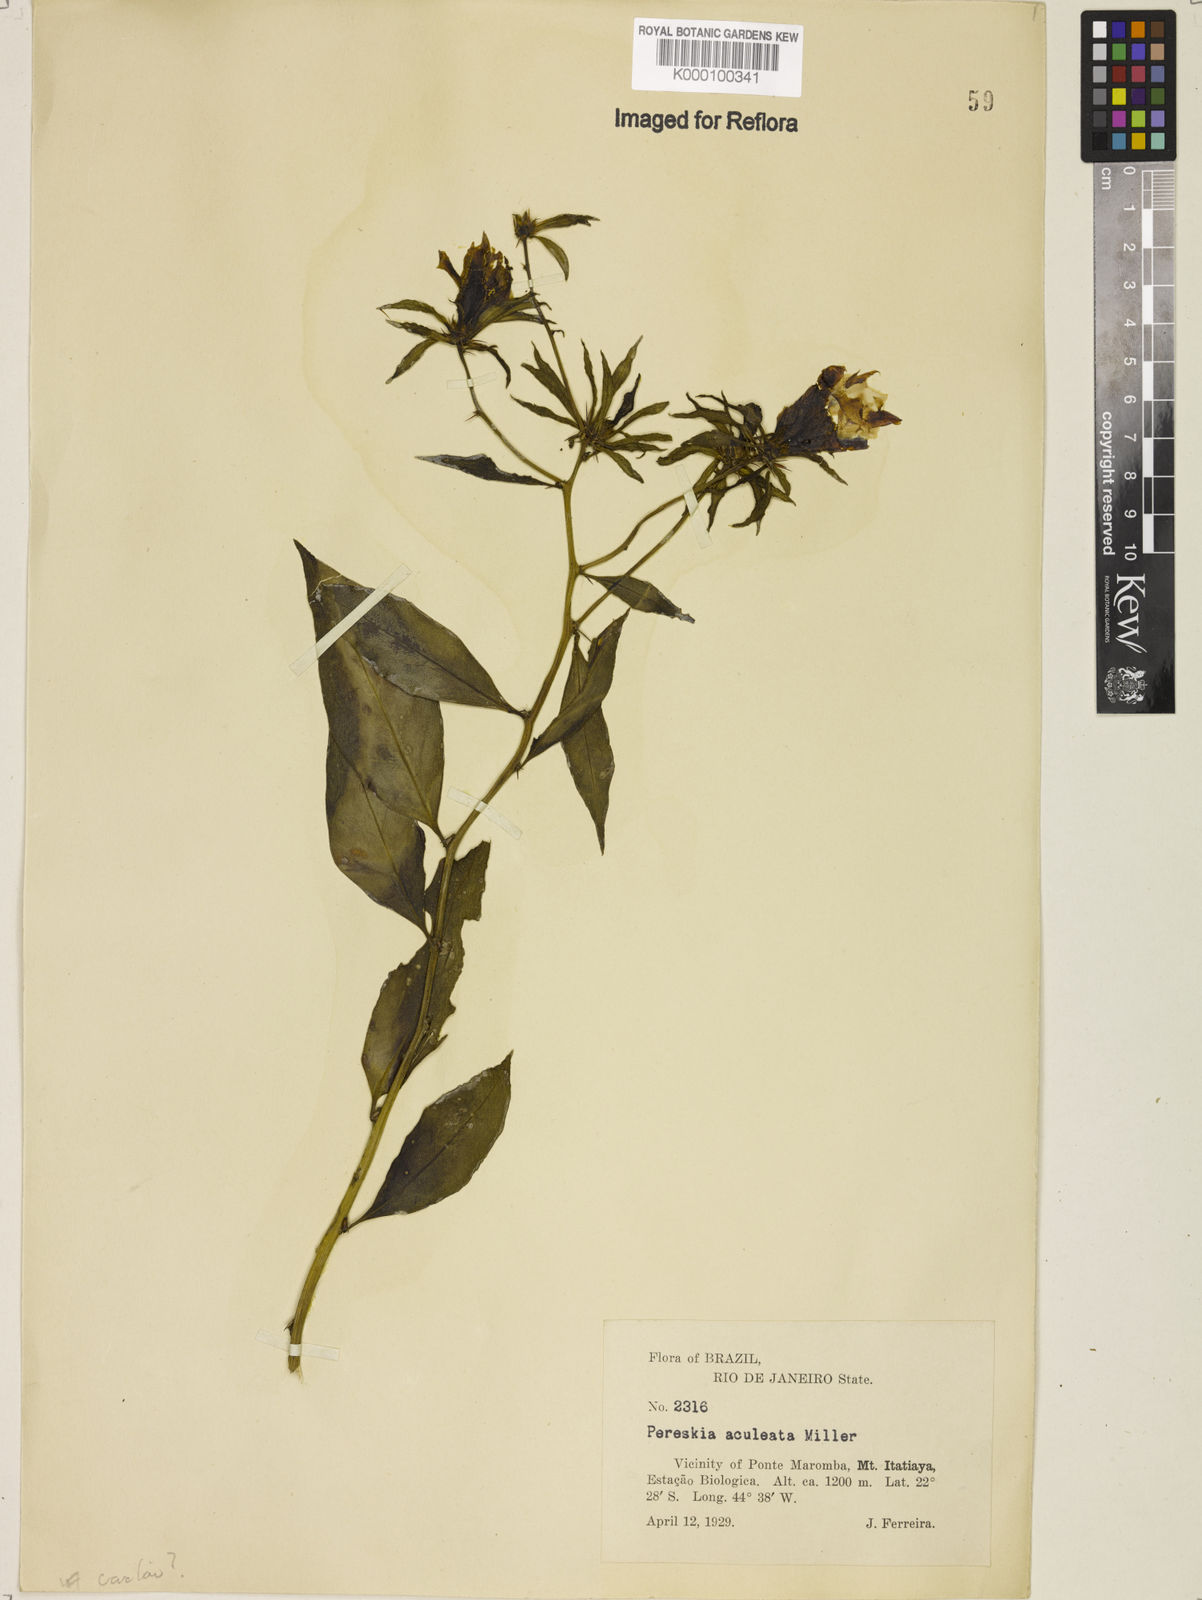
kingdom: Plantae
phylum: Tracheophyta
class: Magnoliopsida
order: Caryophyllales
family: Cactaceae
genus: Pereskia
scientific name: Pereskia aculeata
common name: Barbados gooseberry
